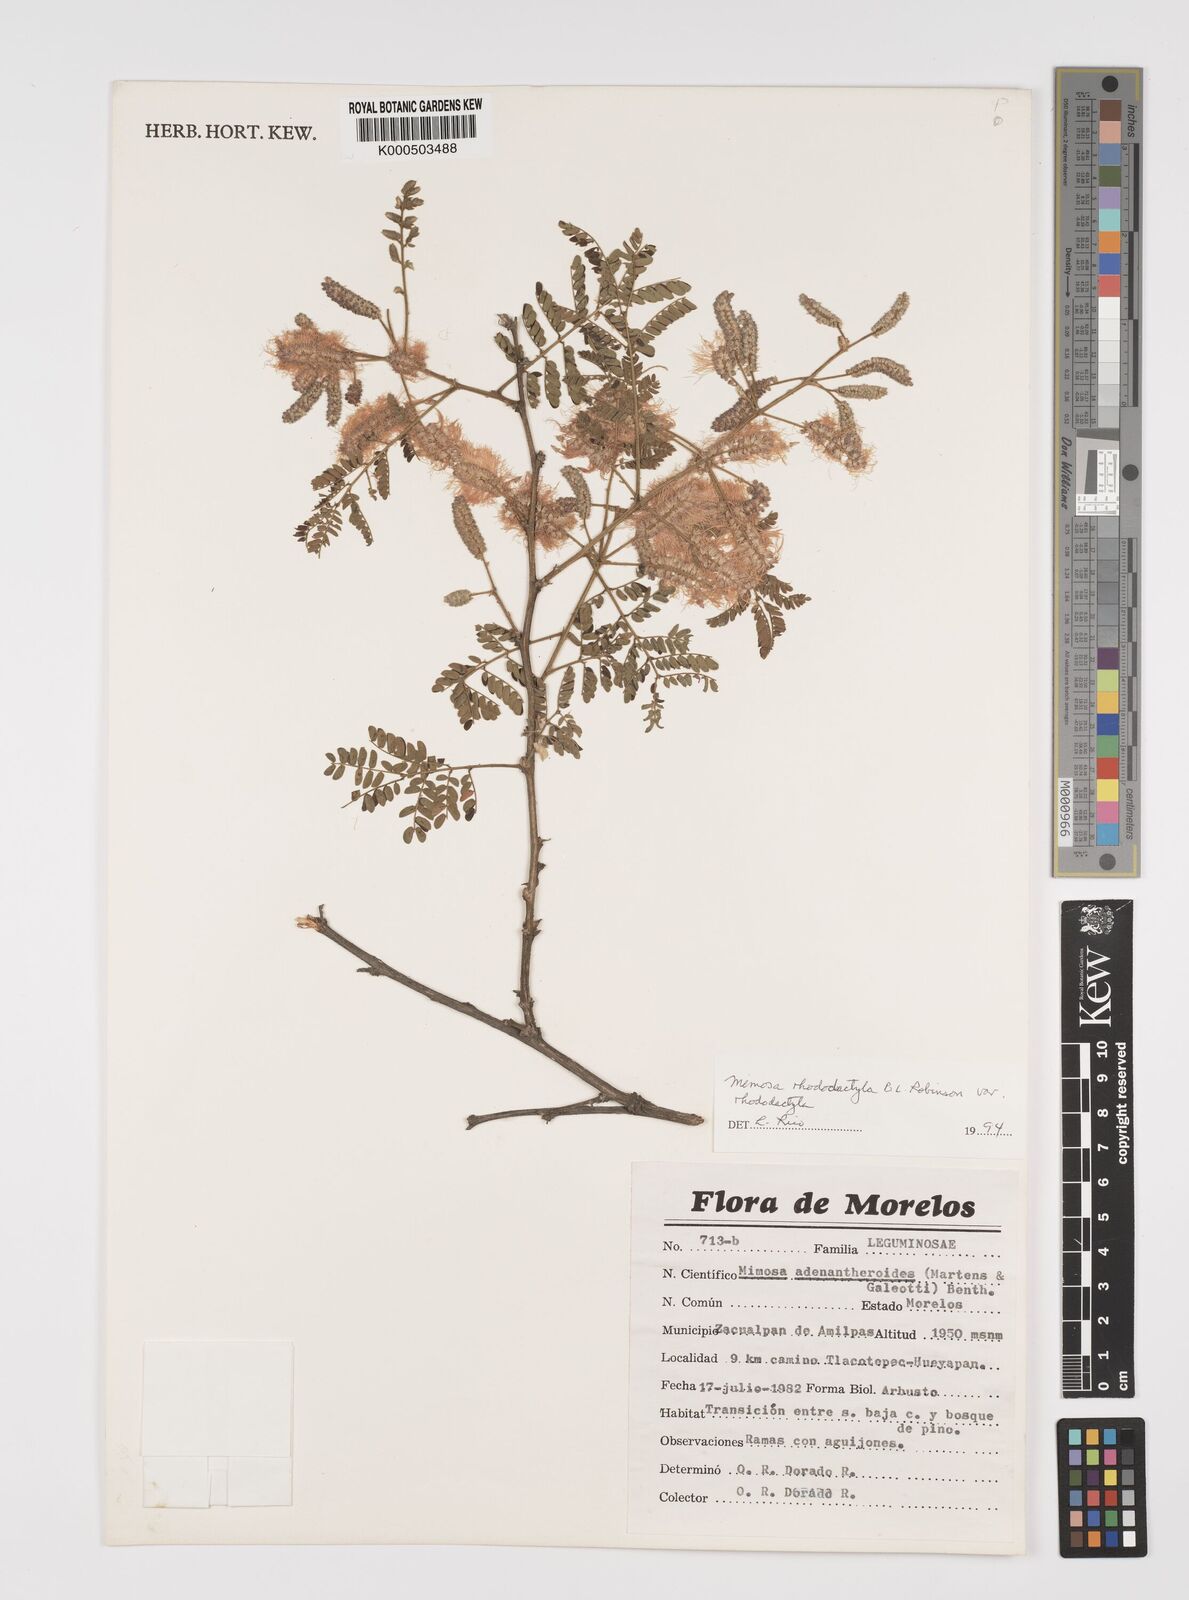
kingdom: Plantae
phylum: Tracheophyta
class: Magnoliopsida
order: Fabales
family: Fabaceae
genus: Mimosa
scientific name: Mimosa rhododactyla
